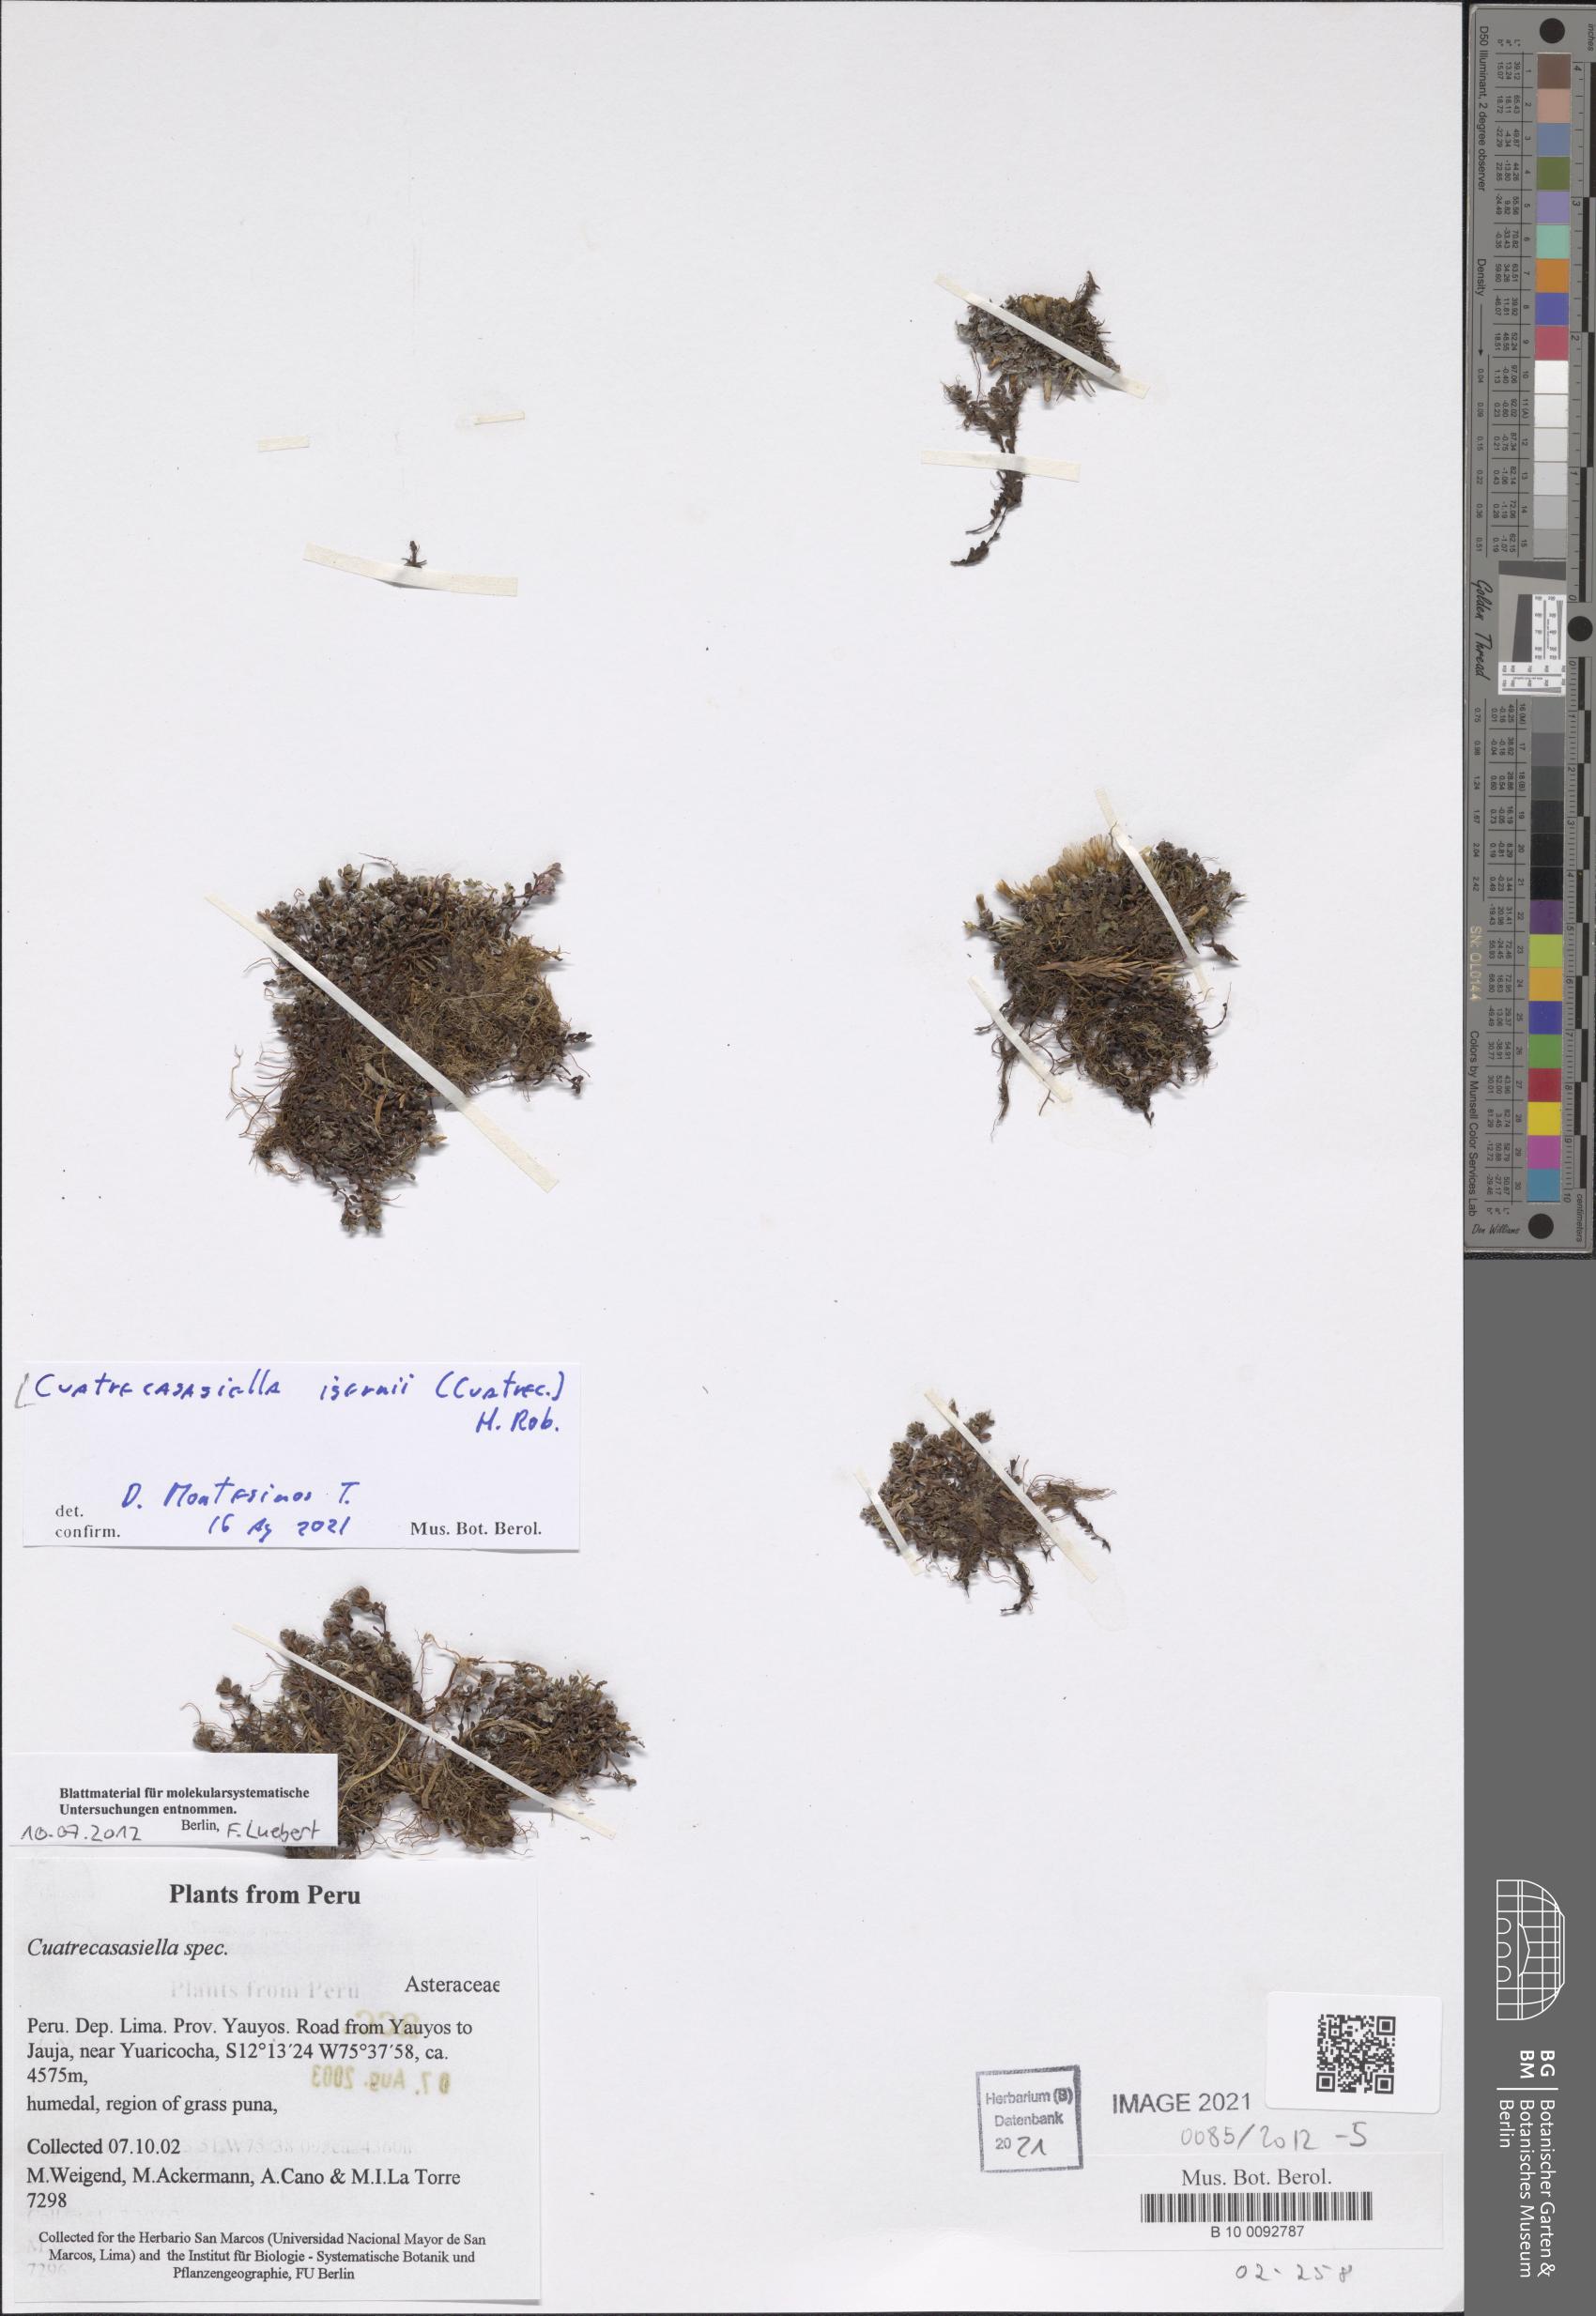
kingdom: Plantae
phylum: Tracheophyta
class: Magnoliopsida
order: Asterales
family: Asteraceae
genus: Cuatrecasasiella
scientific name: Cuatrecasasiella isernii
